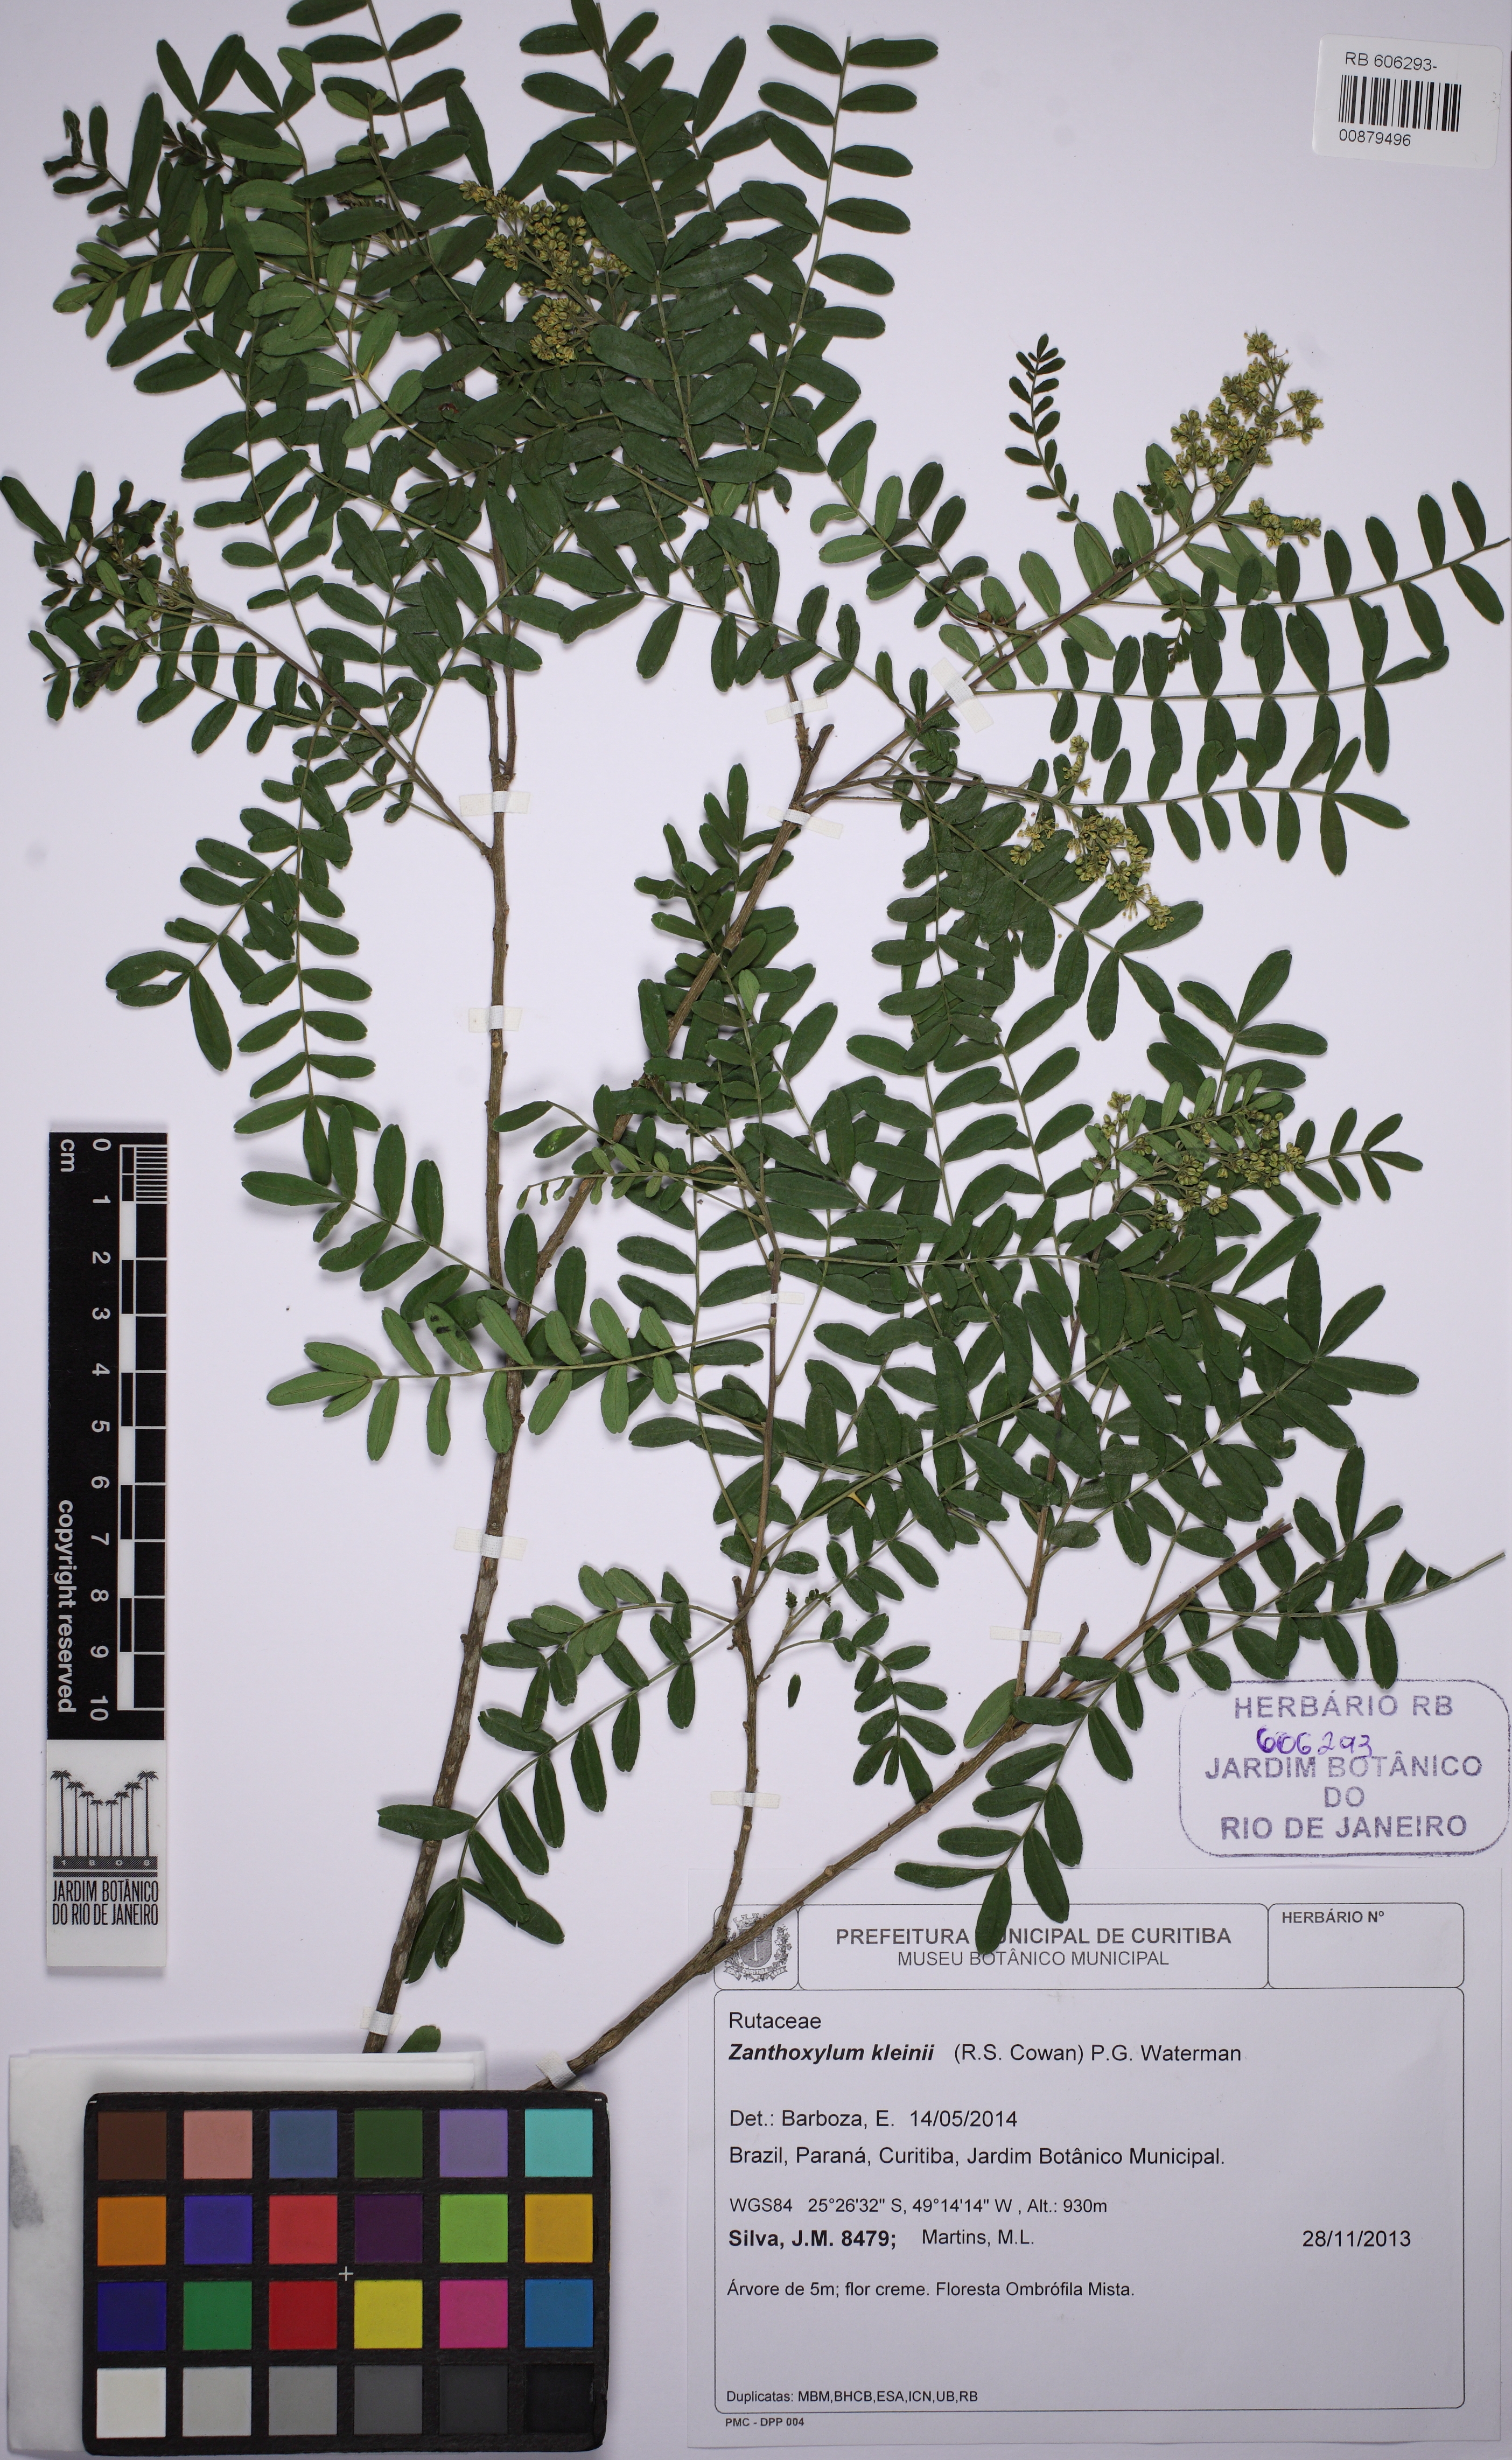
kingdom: Plantae
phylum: Tracheophyta
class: Magnoliopsida
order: Sapindales
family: Rutaceae
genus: Zanthoxylum
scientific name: Zanthoxylum kleinii
